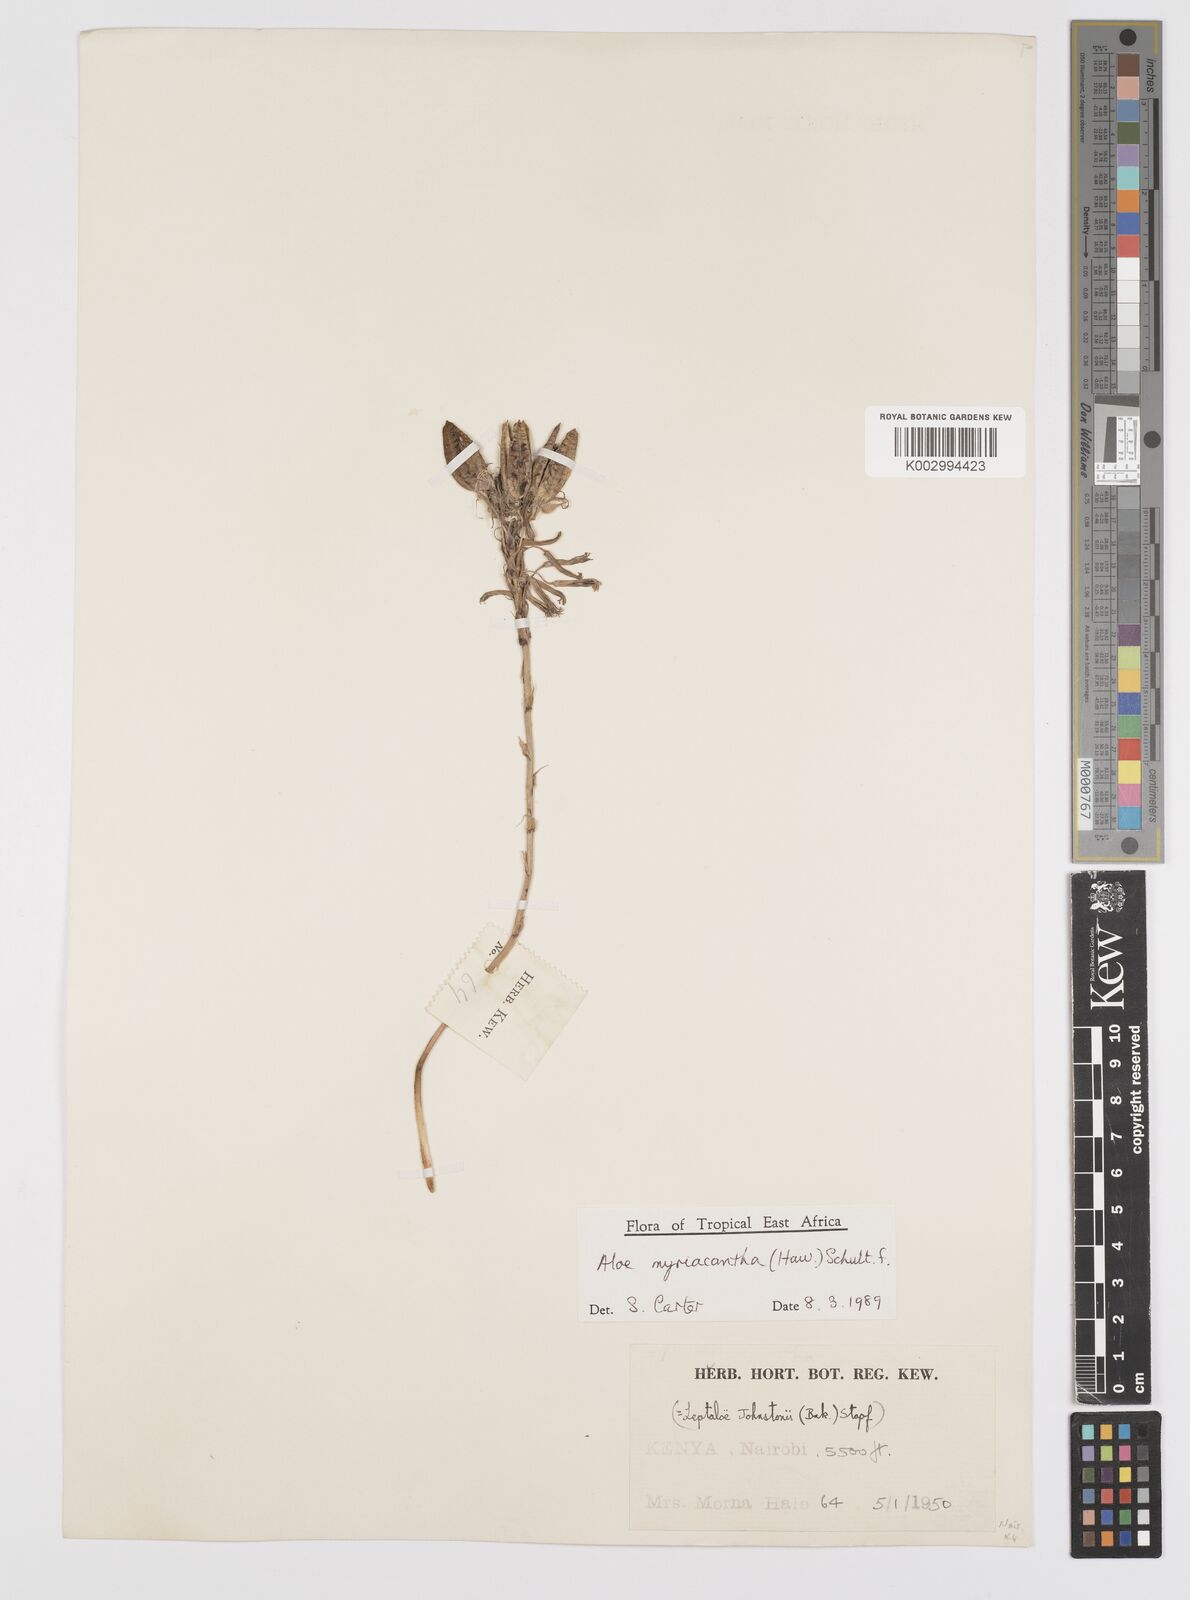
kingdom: Plantae
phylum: Tracheophyta
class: Liliopsida
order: Asparagales
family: Asphodelaceae
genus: Aloe
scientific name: Aloe myriacantha
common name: Grass aloe
